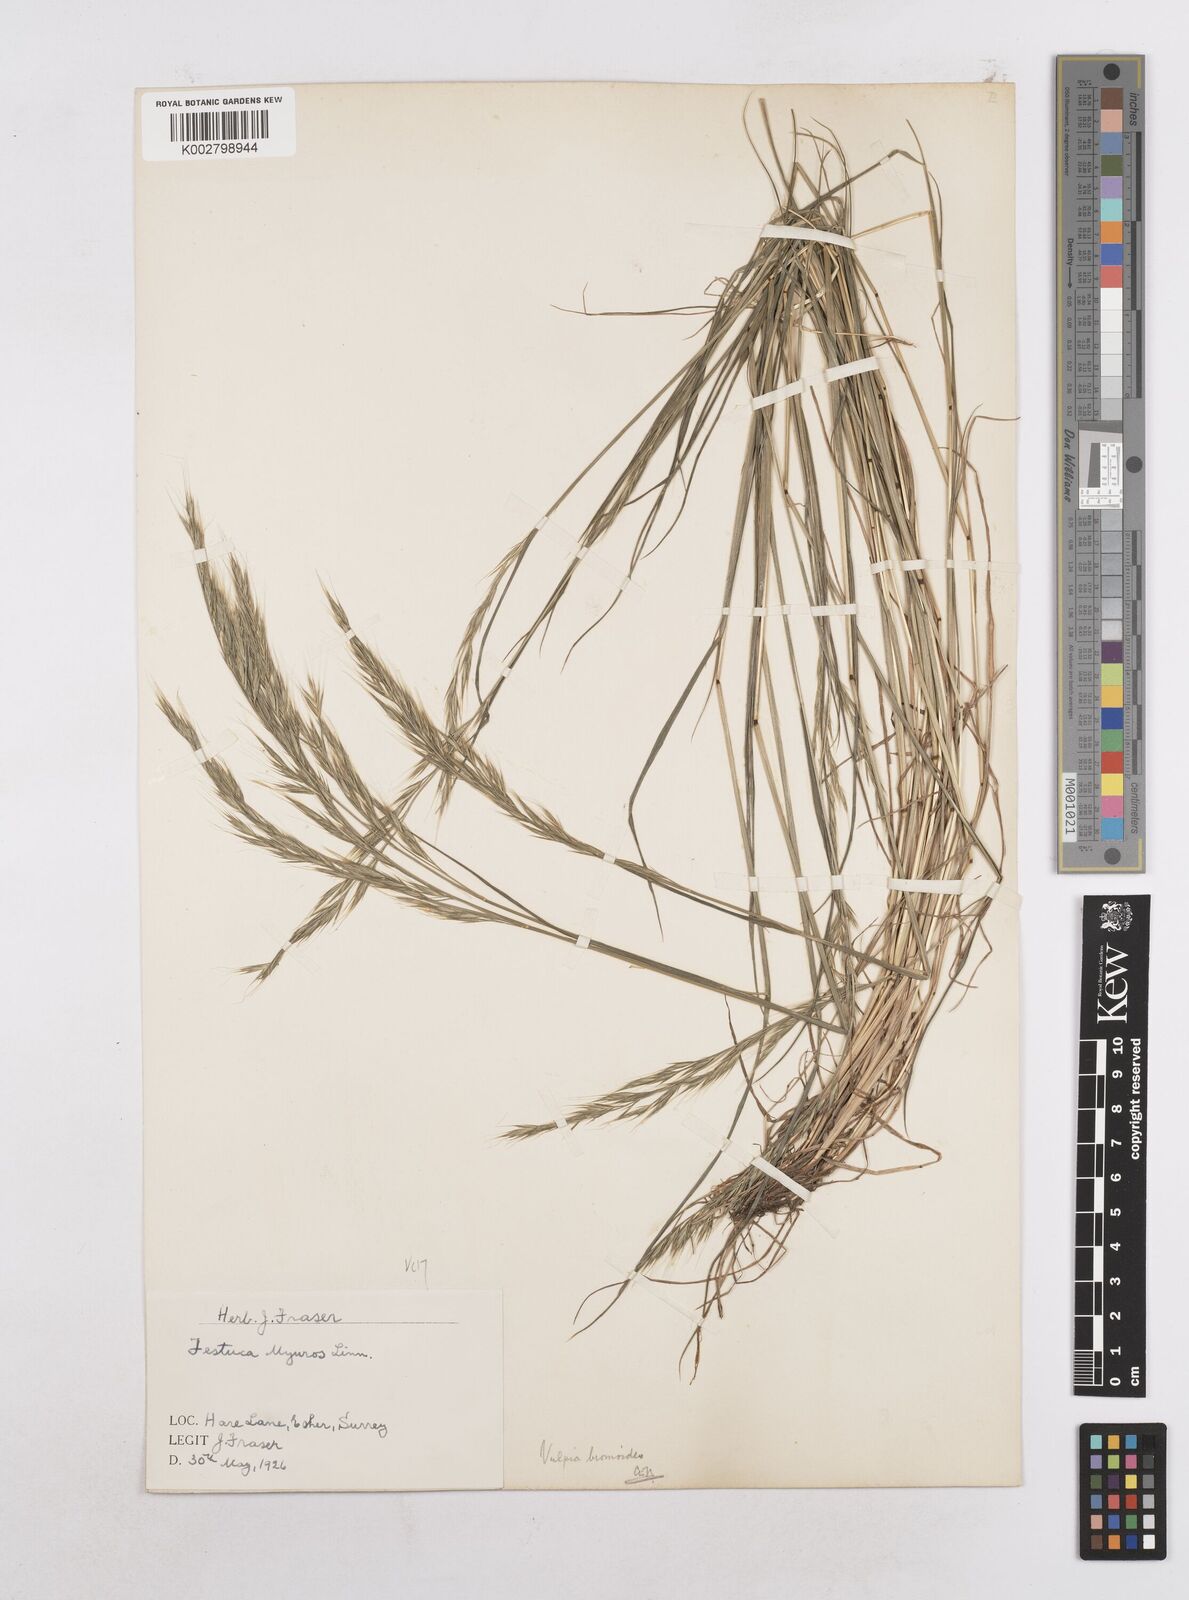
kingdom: Plantae
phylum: Tracheophyta
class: Liliopsida
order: Poales
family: Poaceae
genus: Festuca
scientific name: Festuca bromoides
